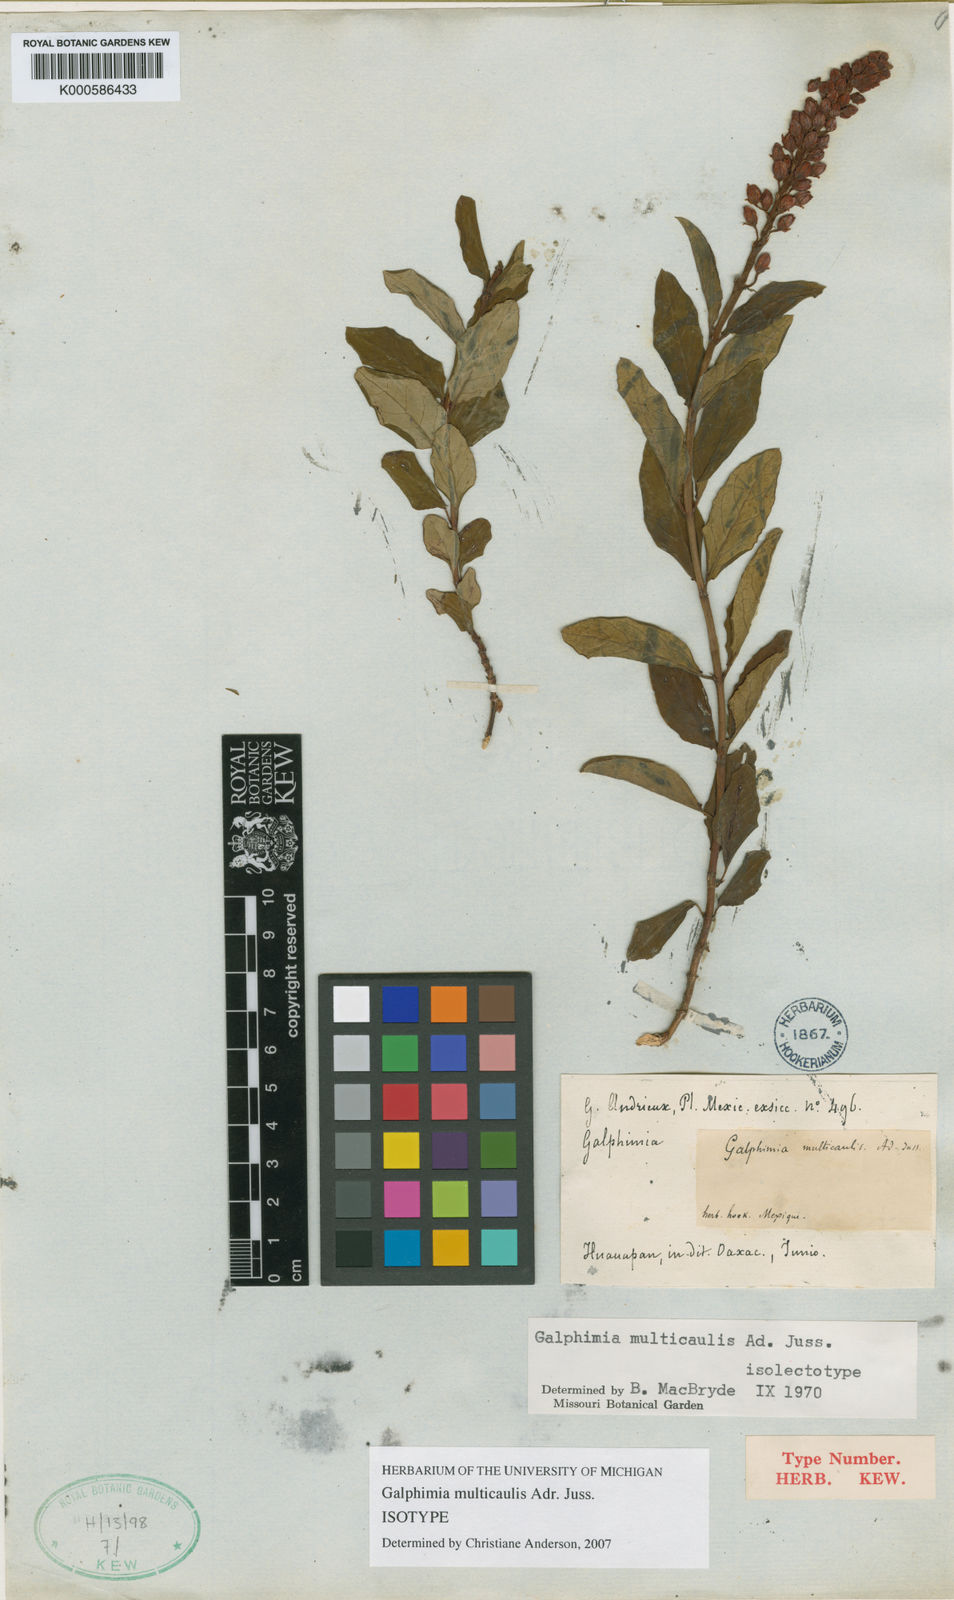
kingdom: Plantae
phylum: Tracheophyta
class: Magnoliopsida
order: Malpighiales
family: Malpighiaceae
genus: Galphimia
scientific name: Galphimia multicaulis
